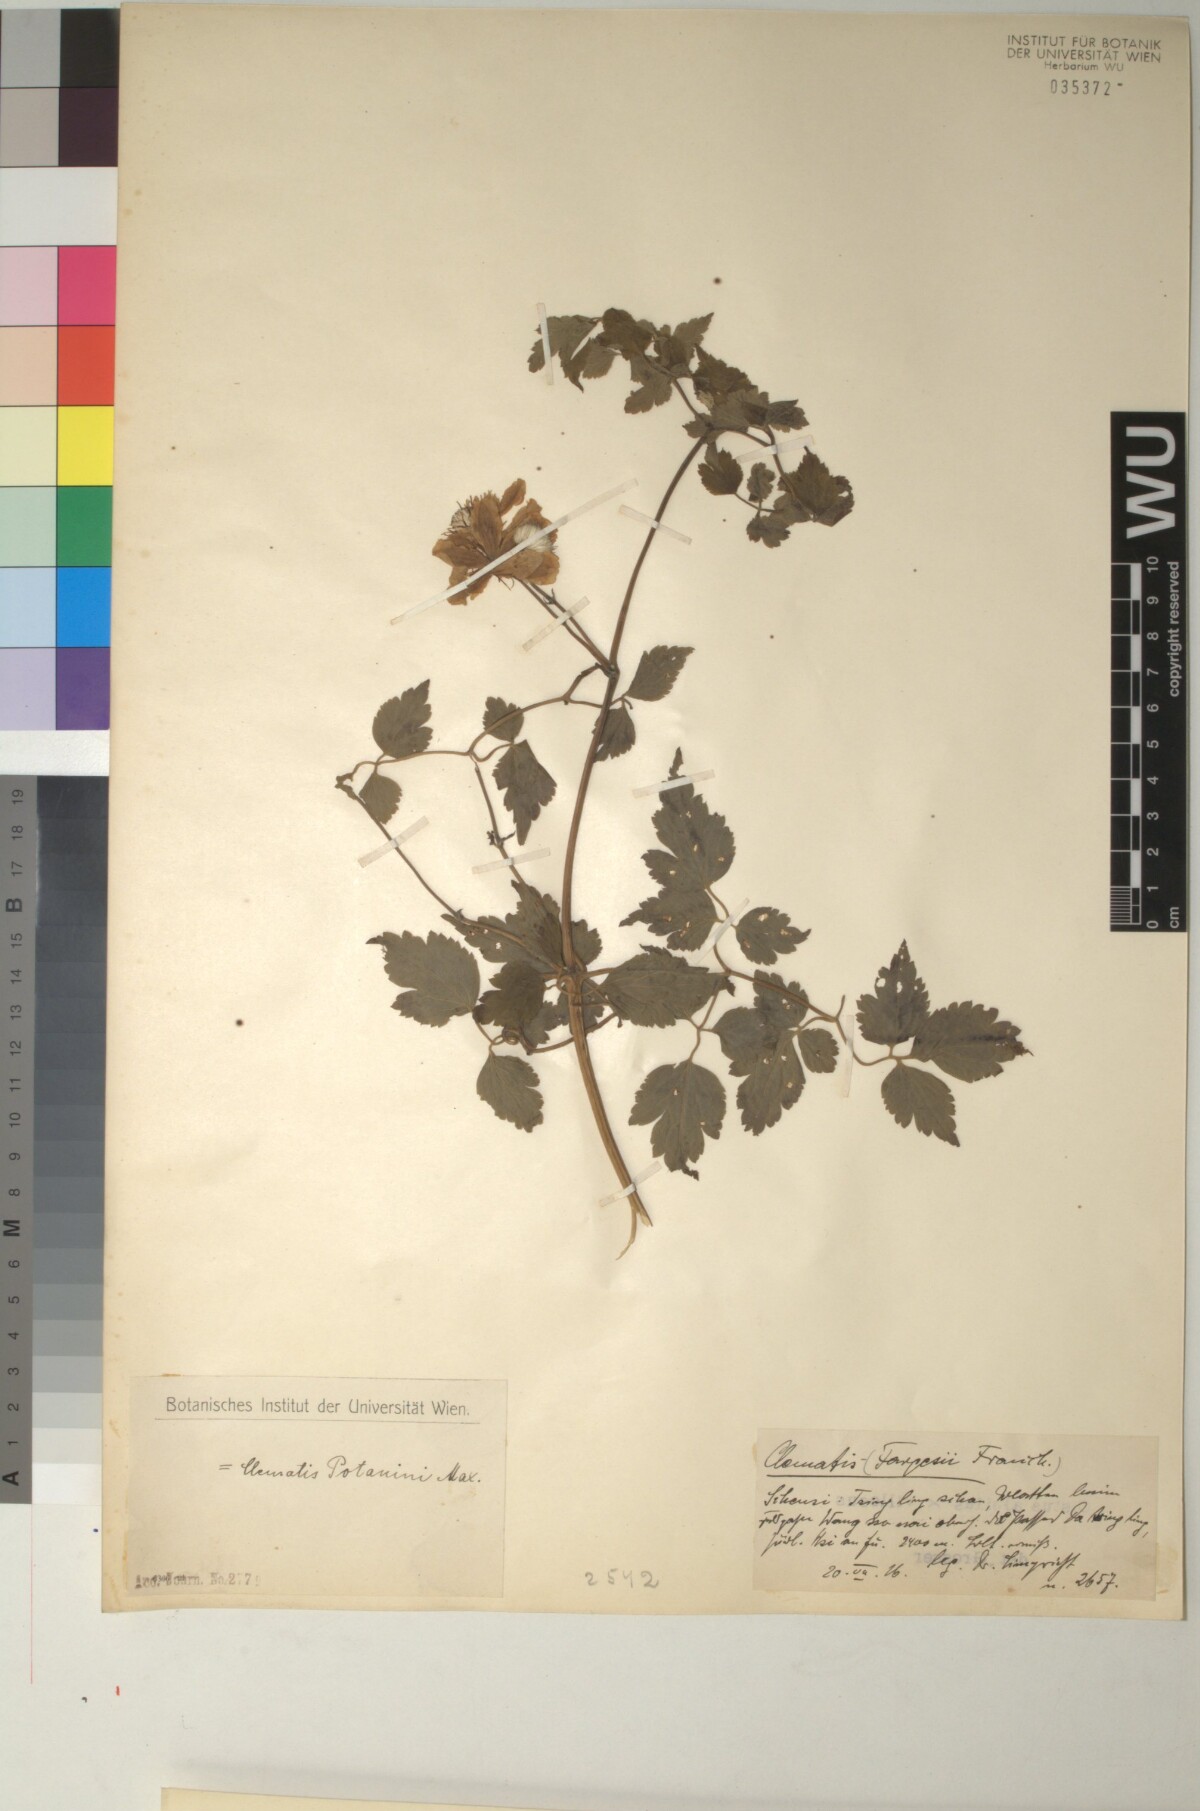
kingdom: Plantae
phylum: Tracheophyta
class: Magnoliopsida
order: Ranunculales
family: Ranunculaceae
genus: Clematis
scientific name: Clematis potaninii
